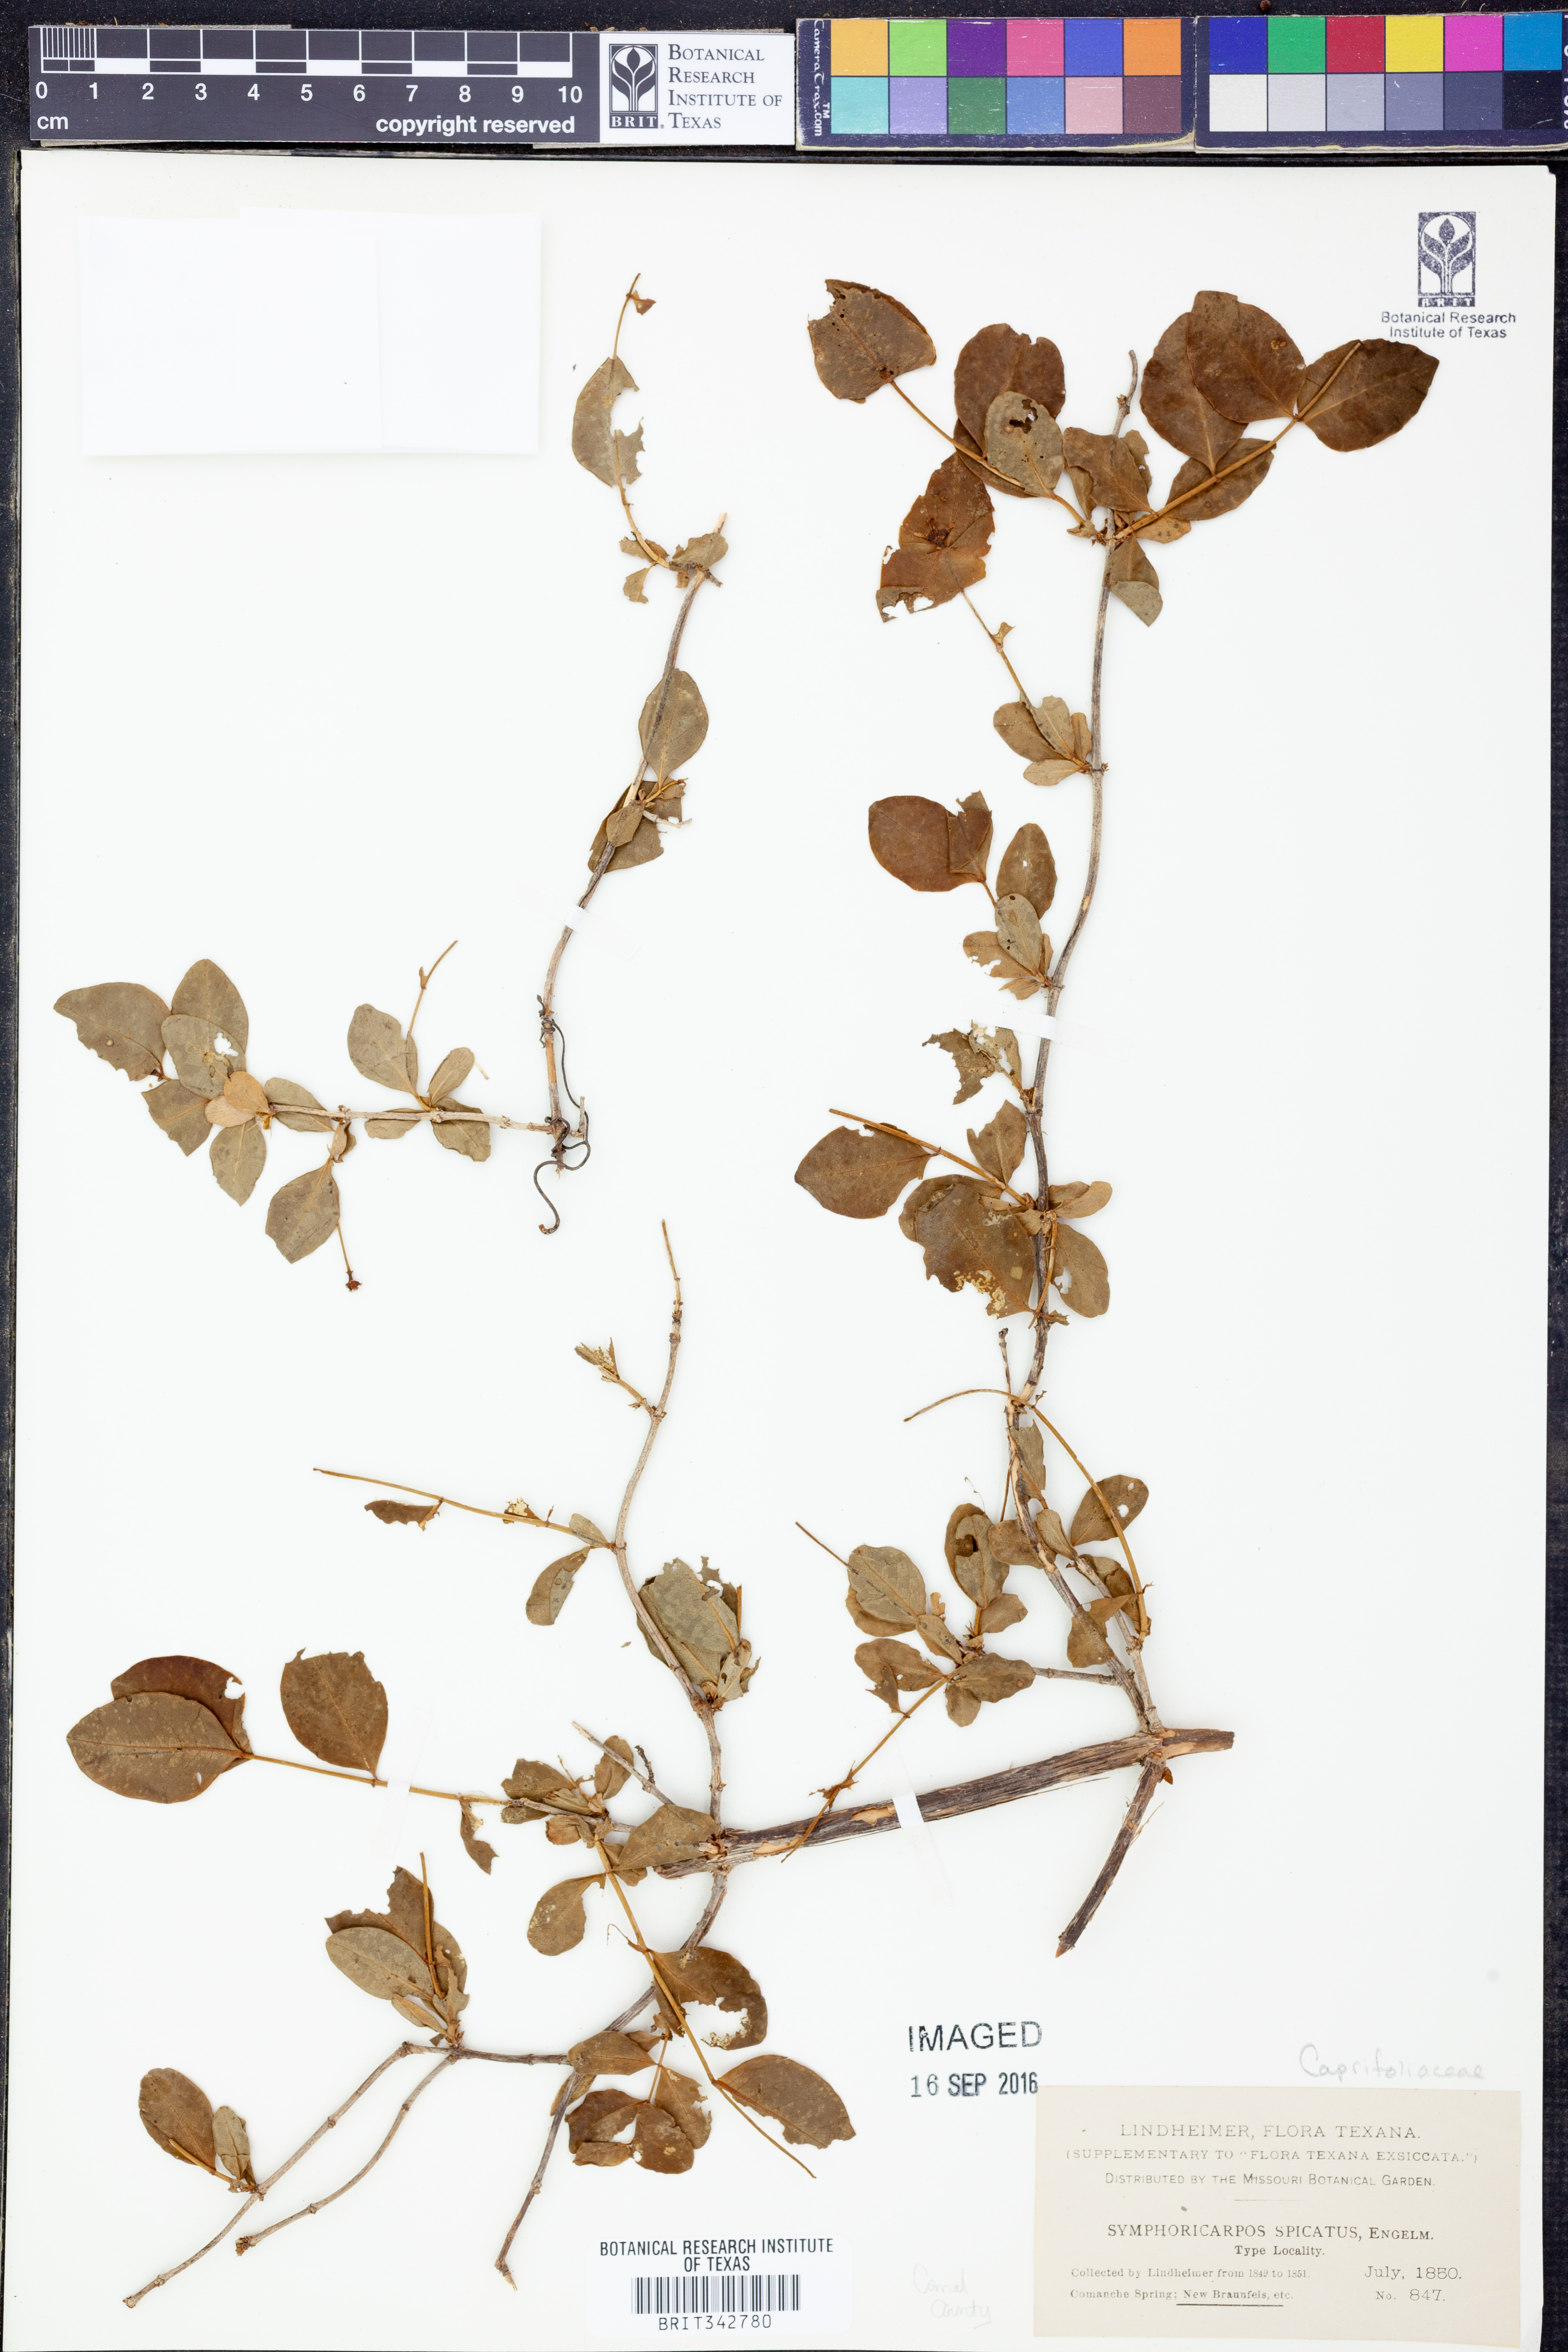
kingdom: Plantae
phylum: Tracheophyta
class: Magnoliopsida
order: Dipsacales
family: Caprifoliaceae
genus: Symphoricarpos
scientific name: Symphoricarpos orbiculatus
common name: Coralberry
